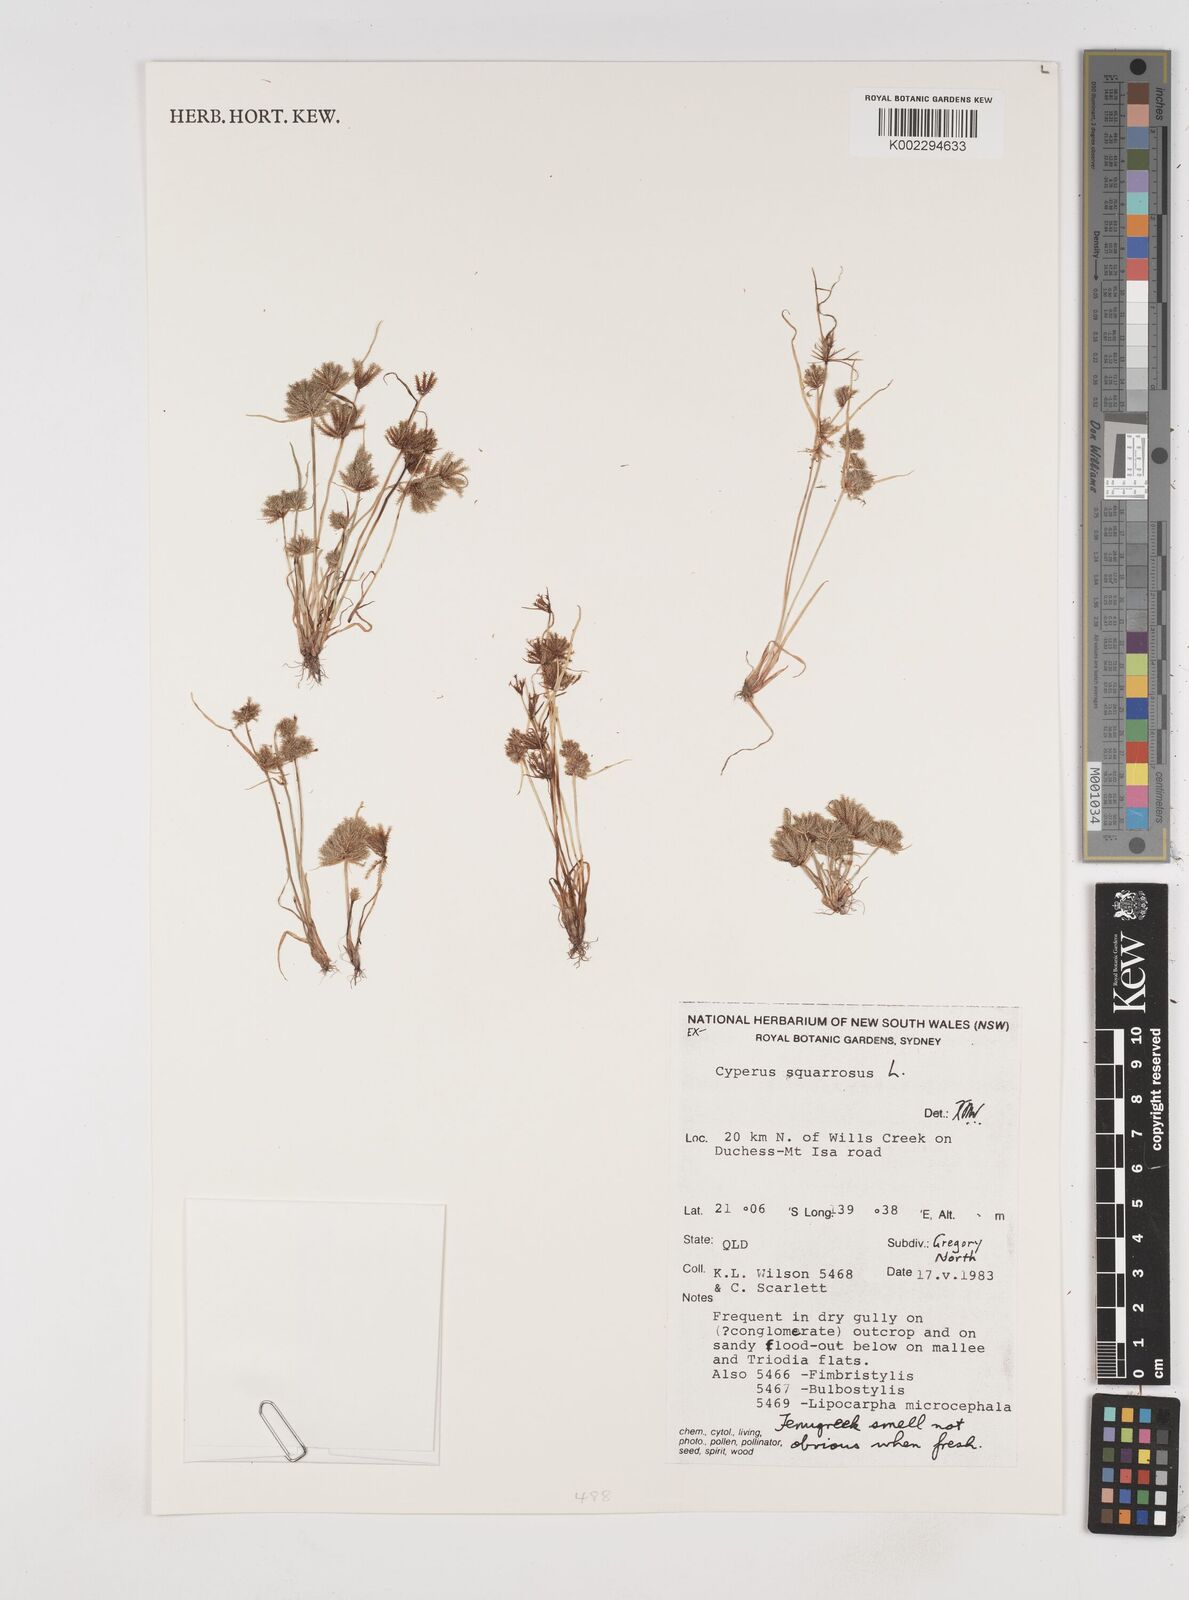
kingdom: Plantae
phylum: Tracheophyta
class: Liliopsida
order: Poales
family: Cyperaceae
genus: Cyperus
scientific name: Cyperus squarrosus
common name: Awned cyperus
